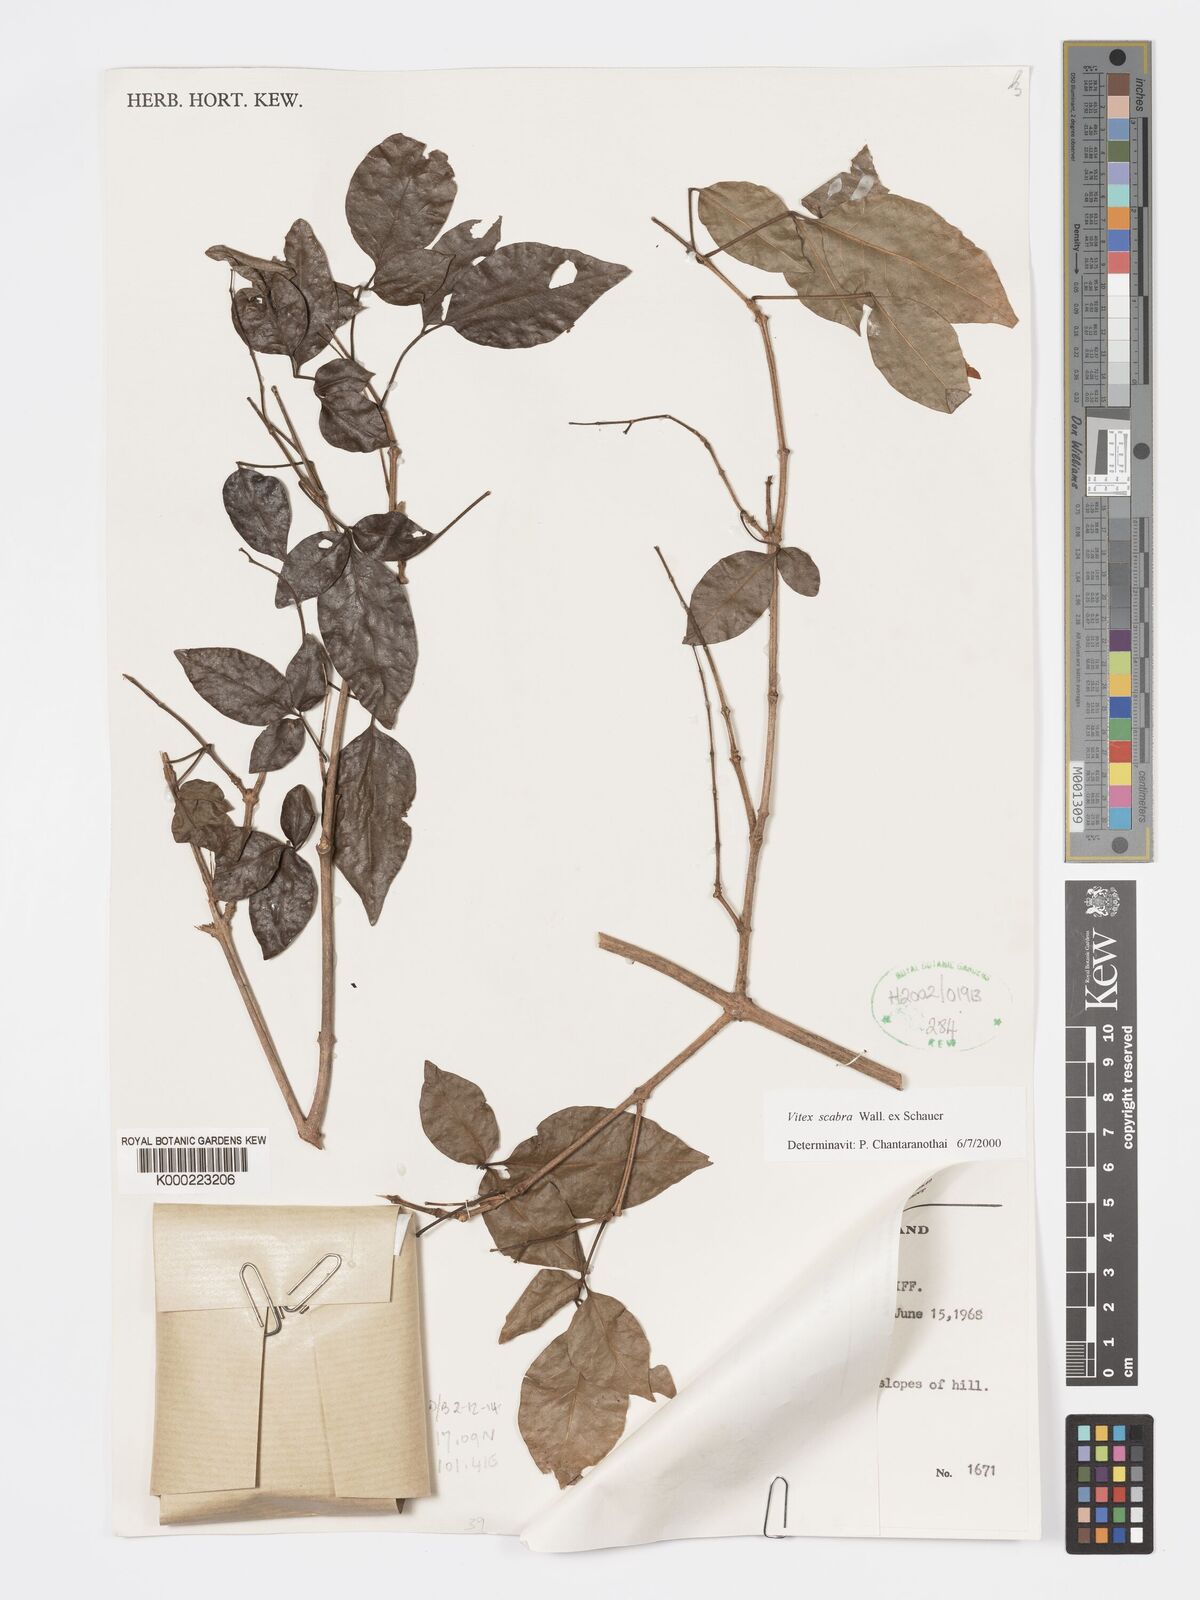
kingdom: Plantae
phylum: Tracheophyta
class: Magnoliopsida
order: Lamiales
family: Lamiaceae
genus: Vitex
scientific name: Vitex scabra
